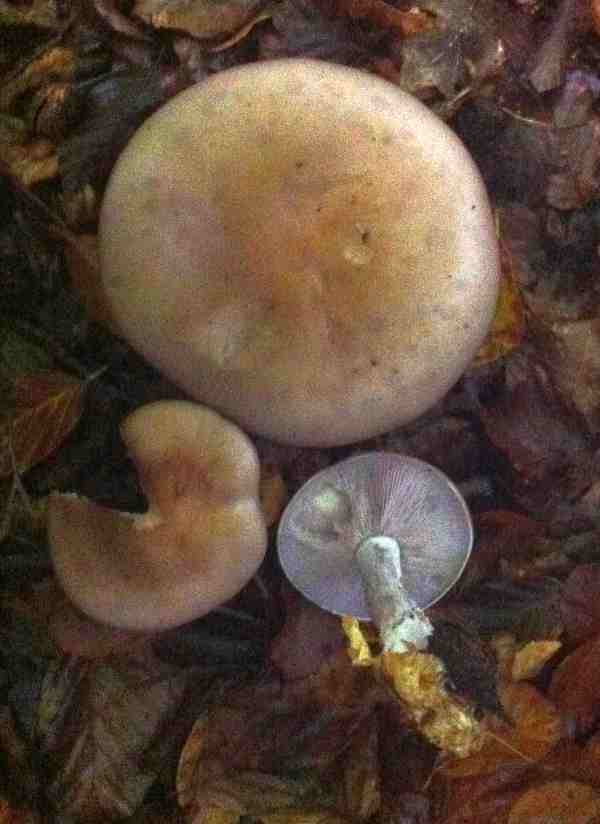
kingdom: Fungi
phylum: Basidiomycota
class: Agaricomycetes
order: Agaricales
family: Tricholomataceae
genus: Lepista
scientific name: Lepista nuda
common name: violet hekseringshat
